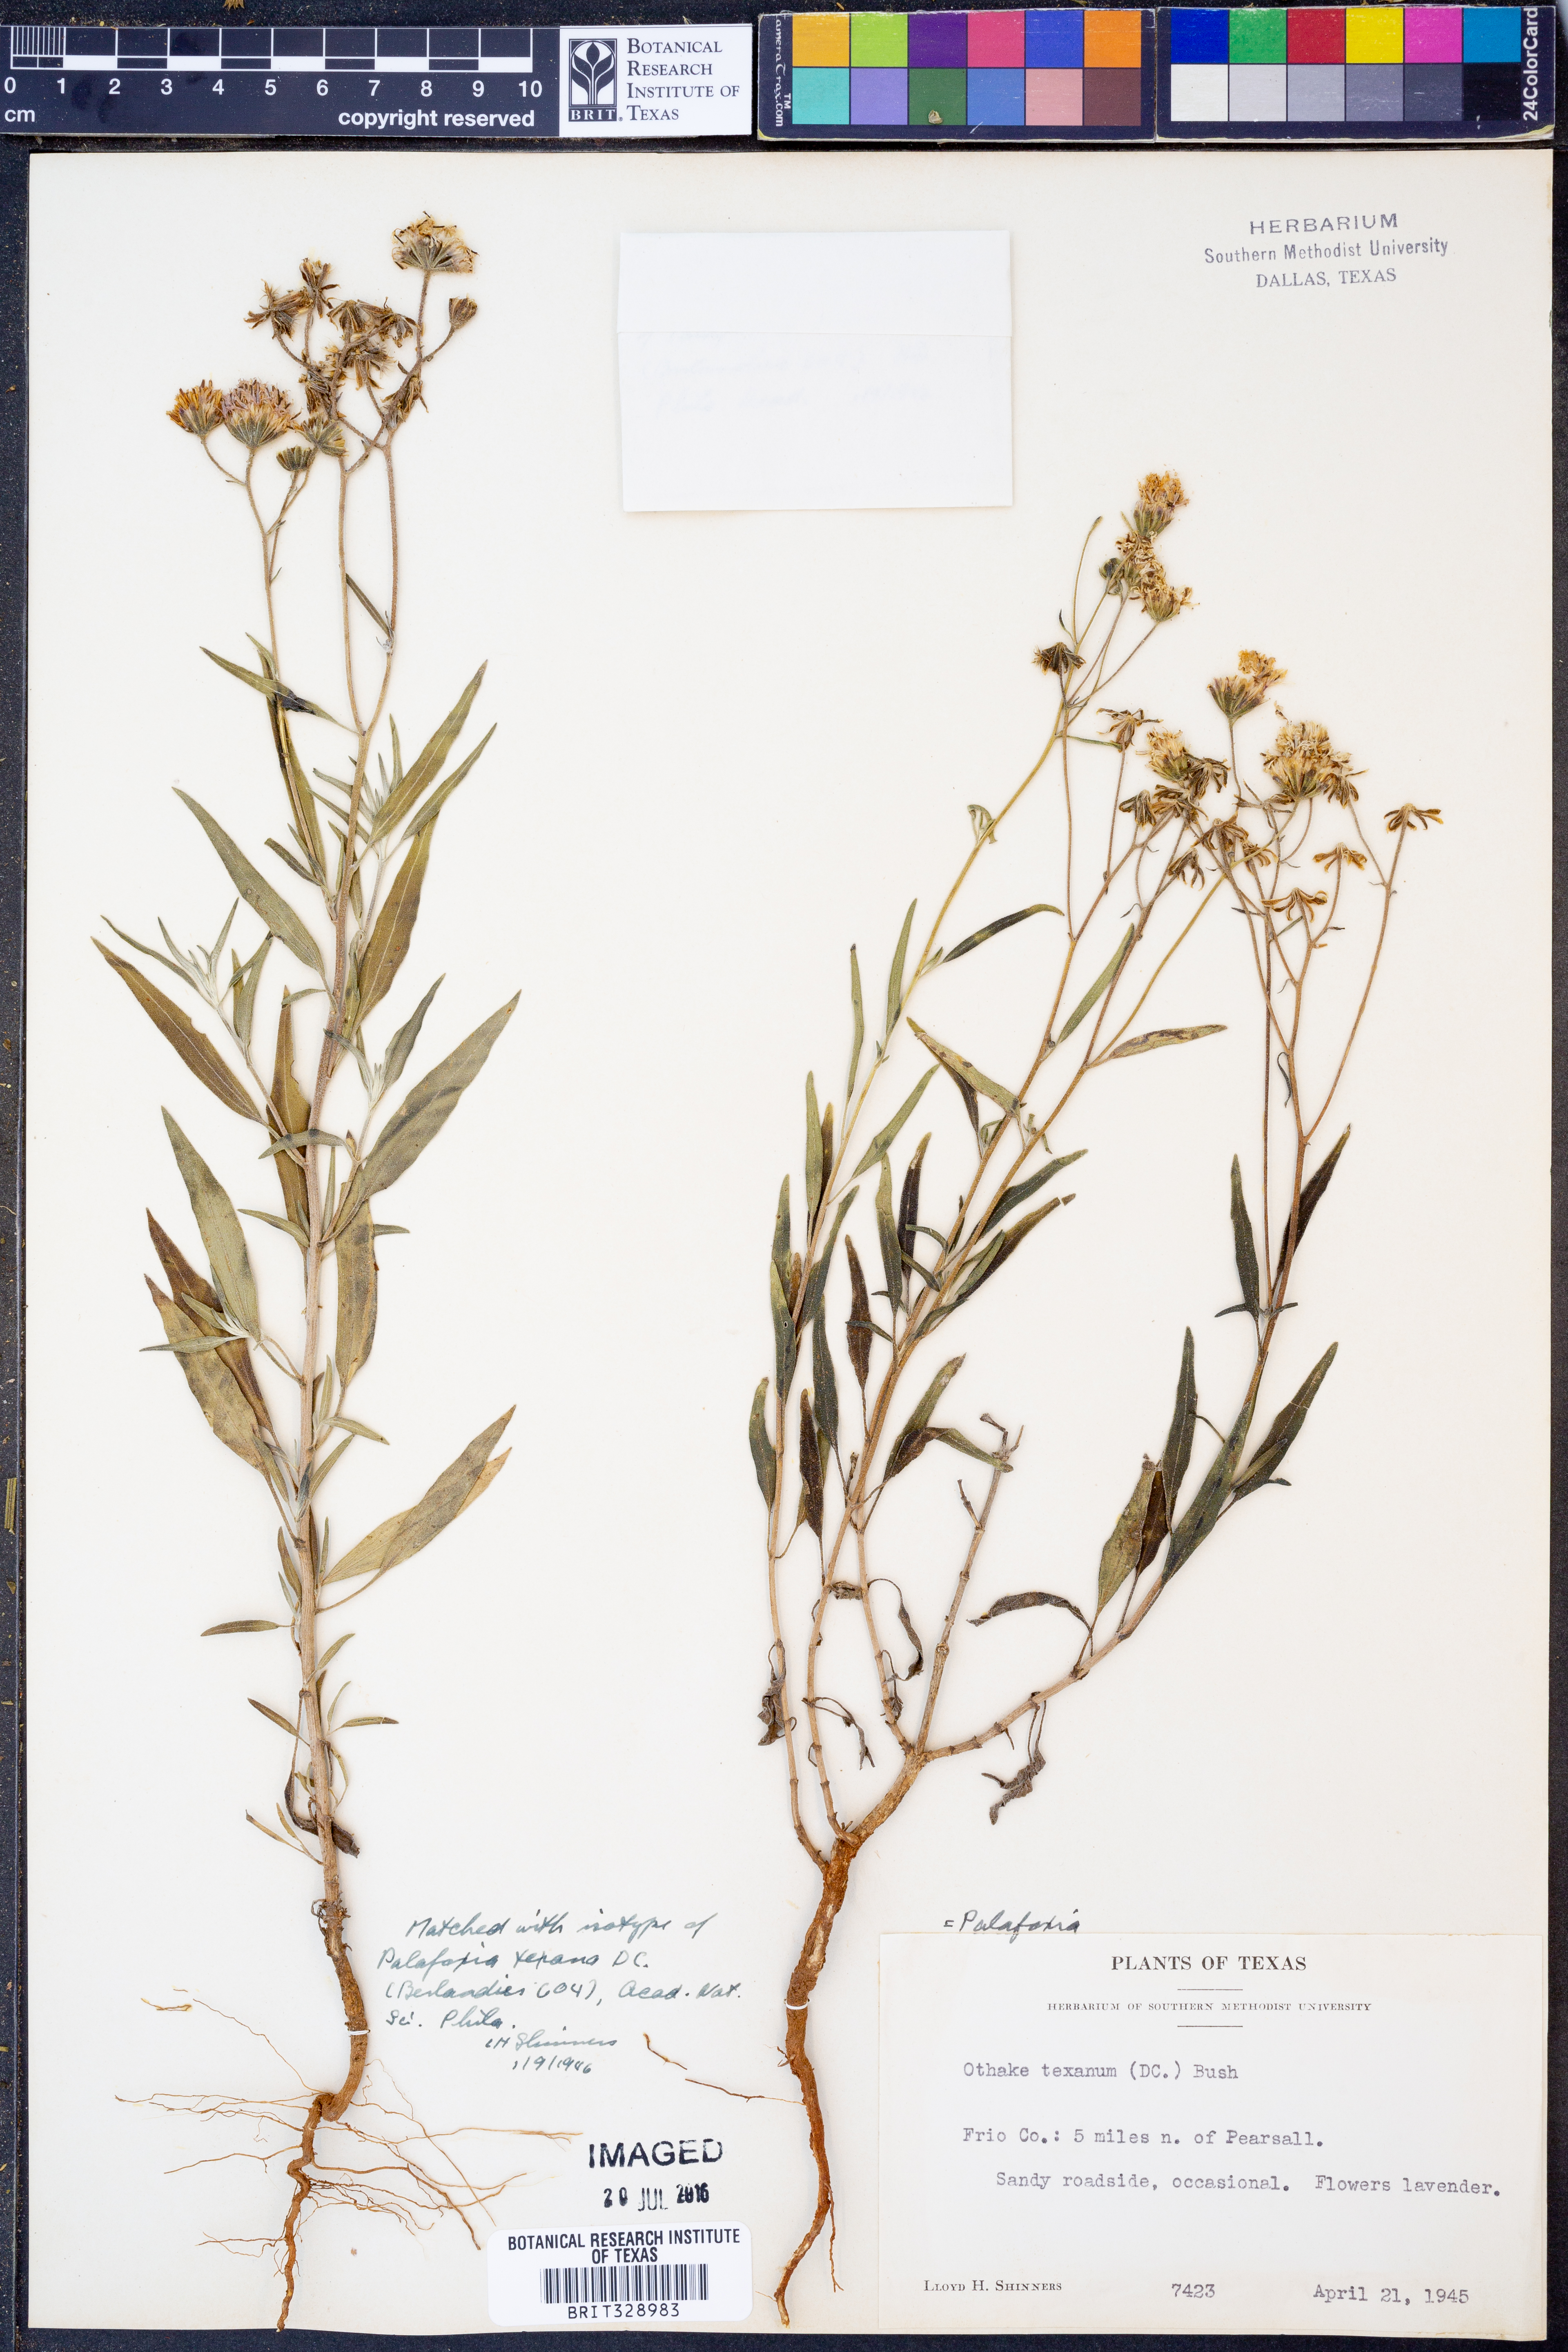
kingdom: Plantae
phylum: Tracheophyta
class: Magnoliopsida
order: Asterales
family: Asteraceae
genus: Palafoxia
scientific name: Palafoxia texana
